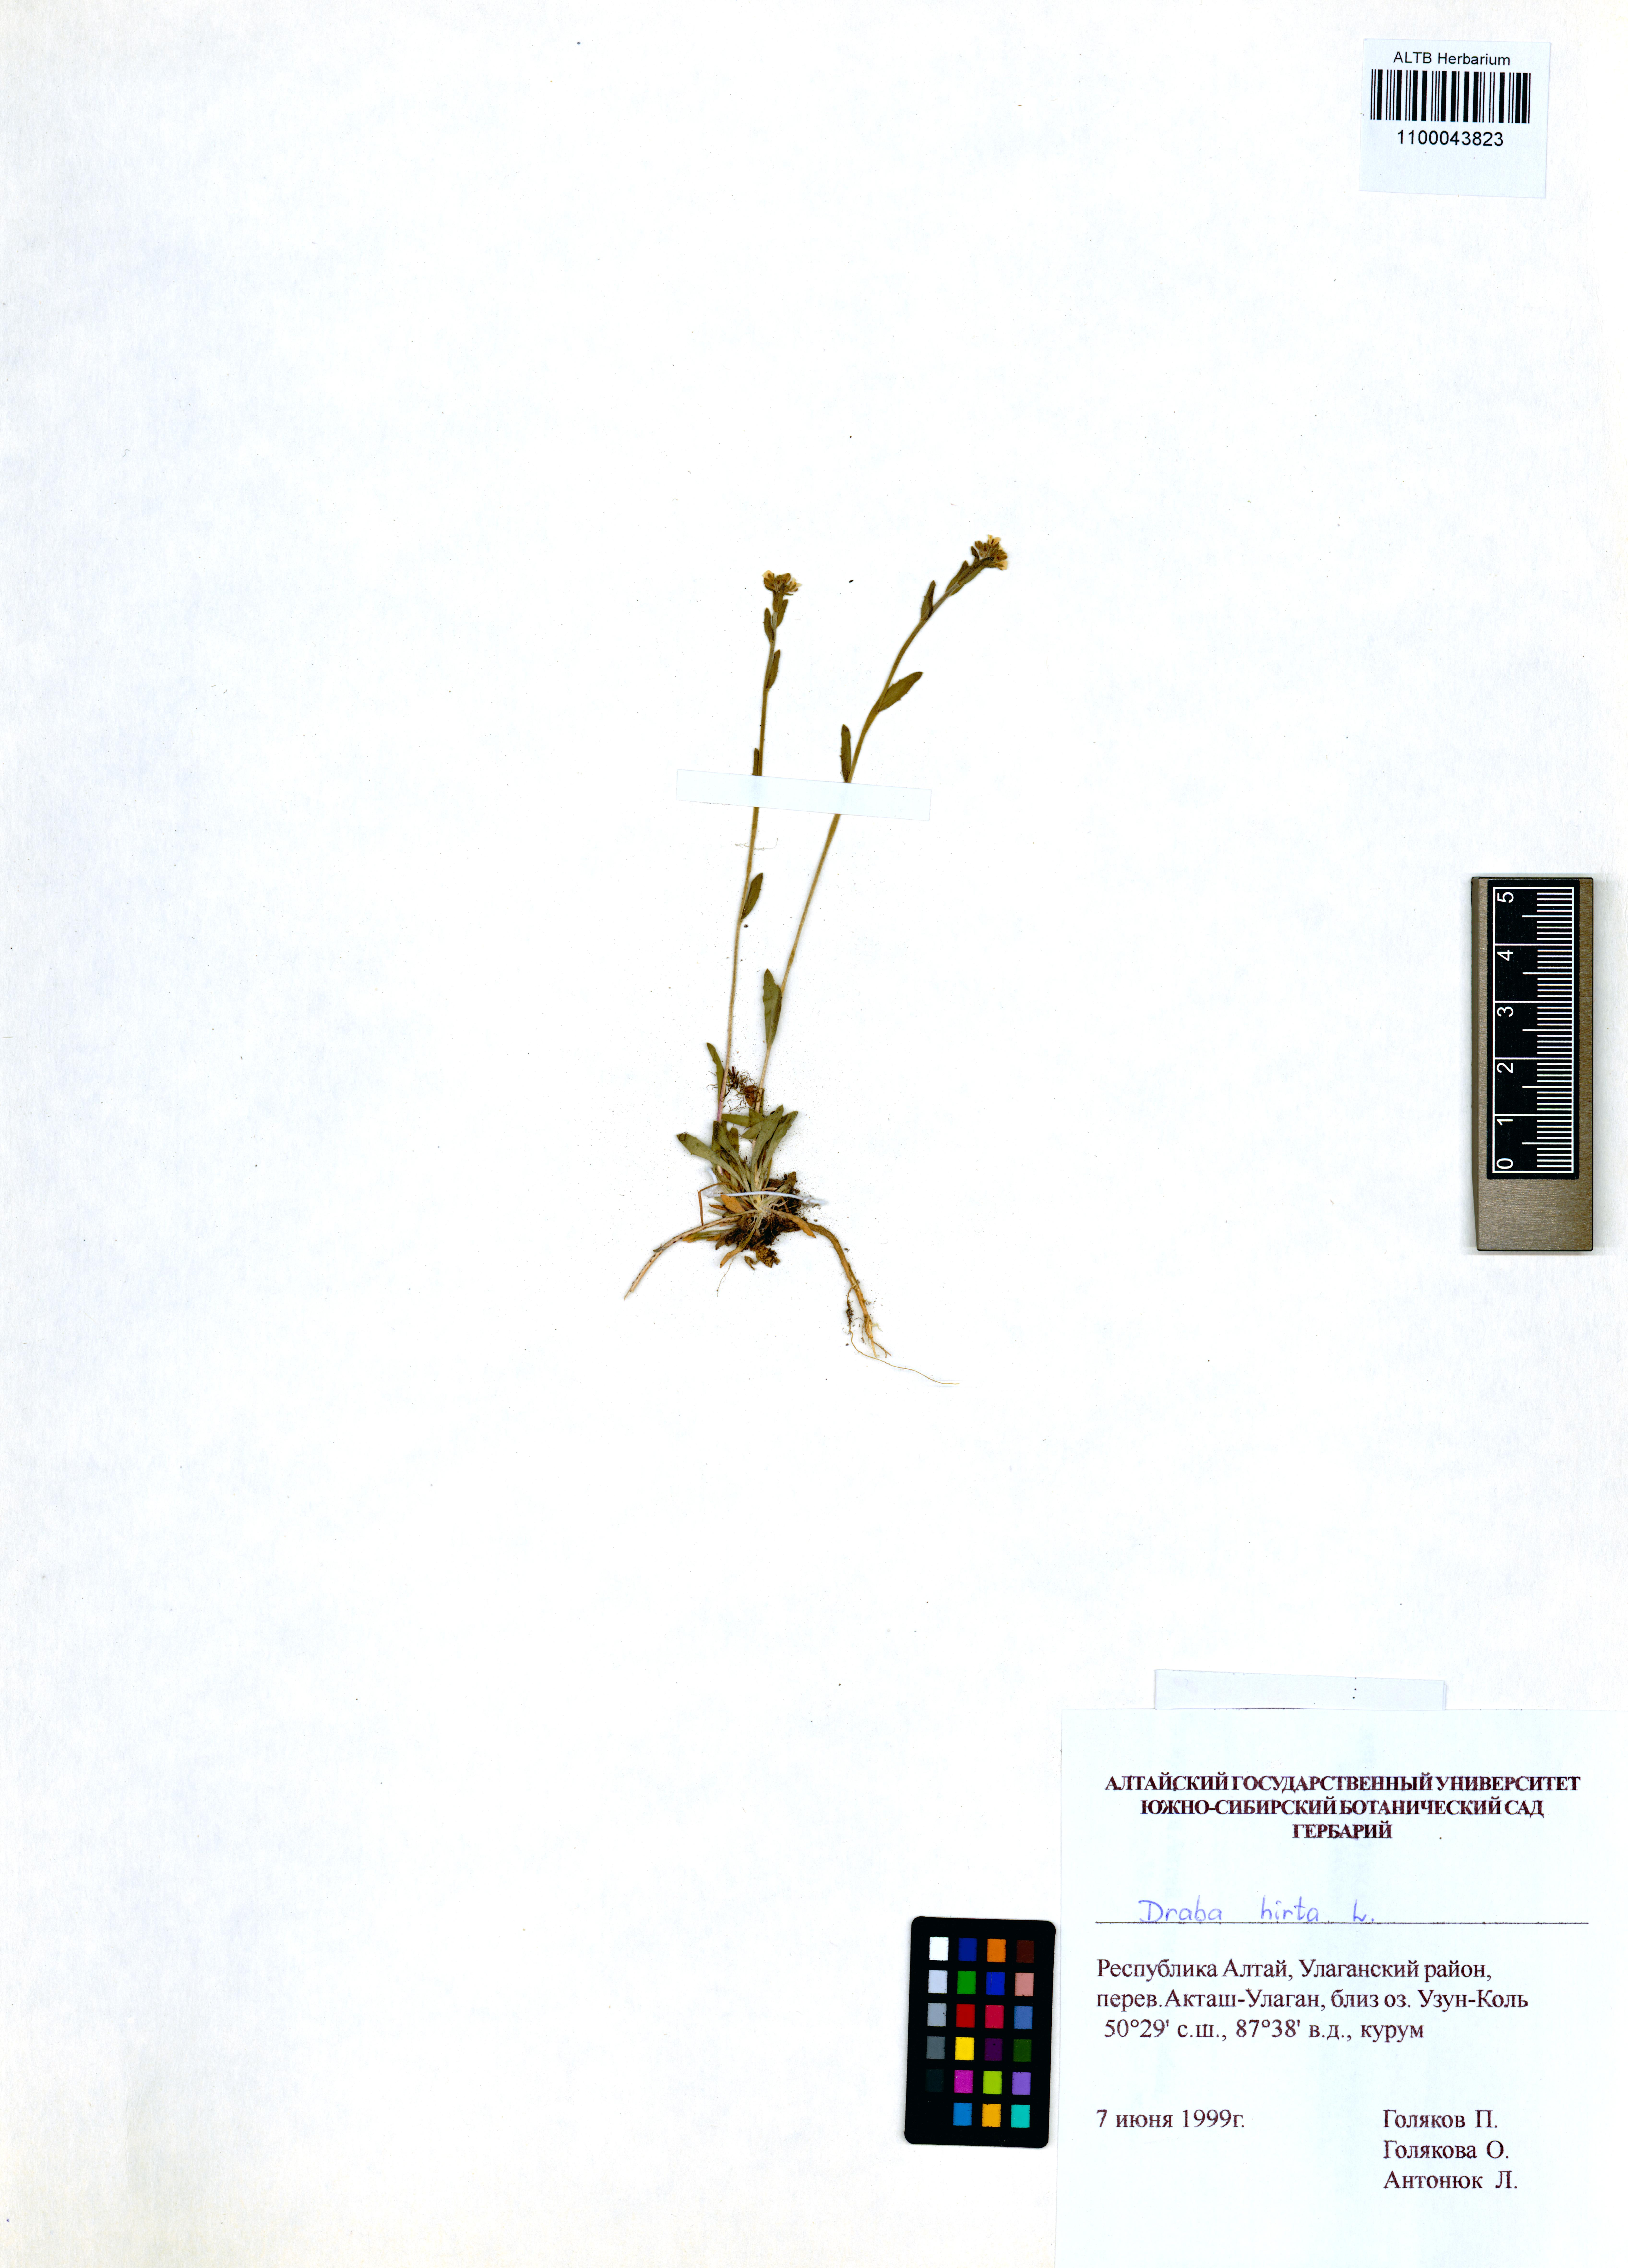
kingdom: Plantae
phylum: Tracheophyta
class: Magnoliopsida
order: Brassicales
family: Brassicaceae
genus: Draba
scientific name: Draba glabella
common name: Glaucous draba
